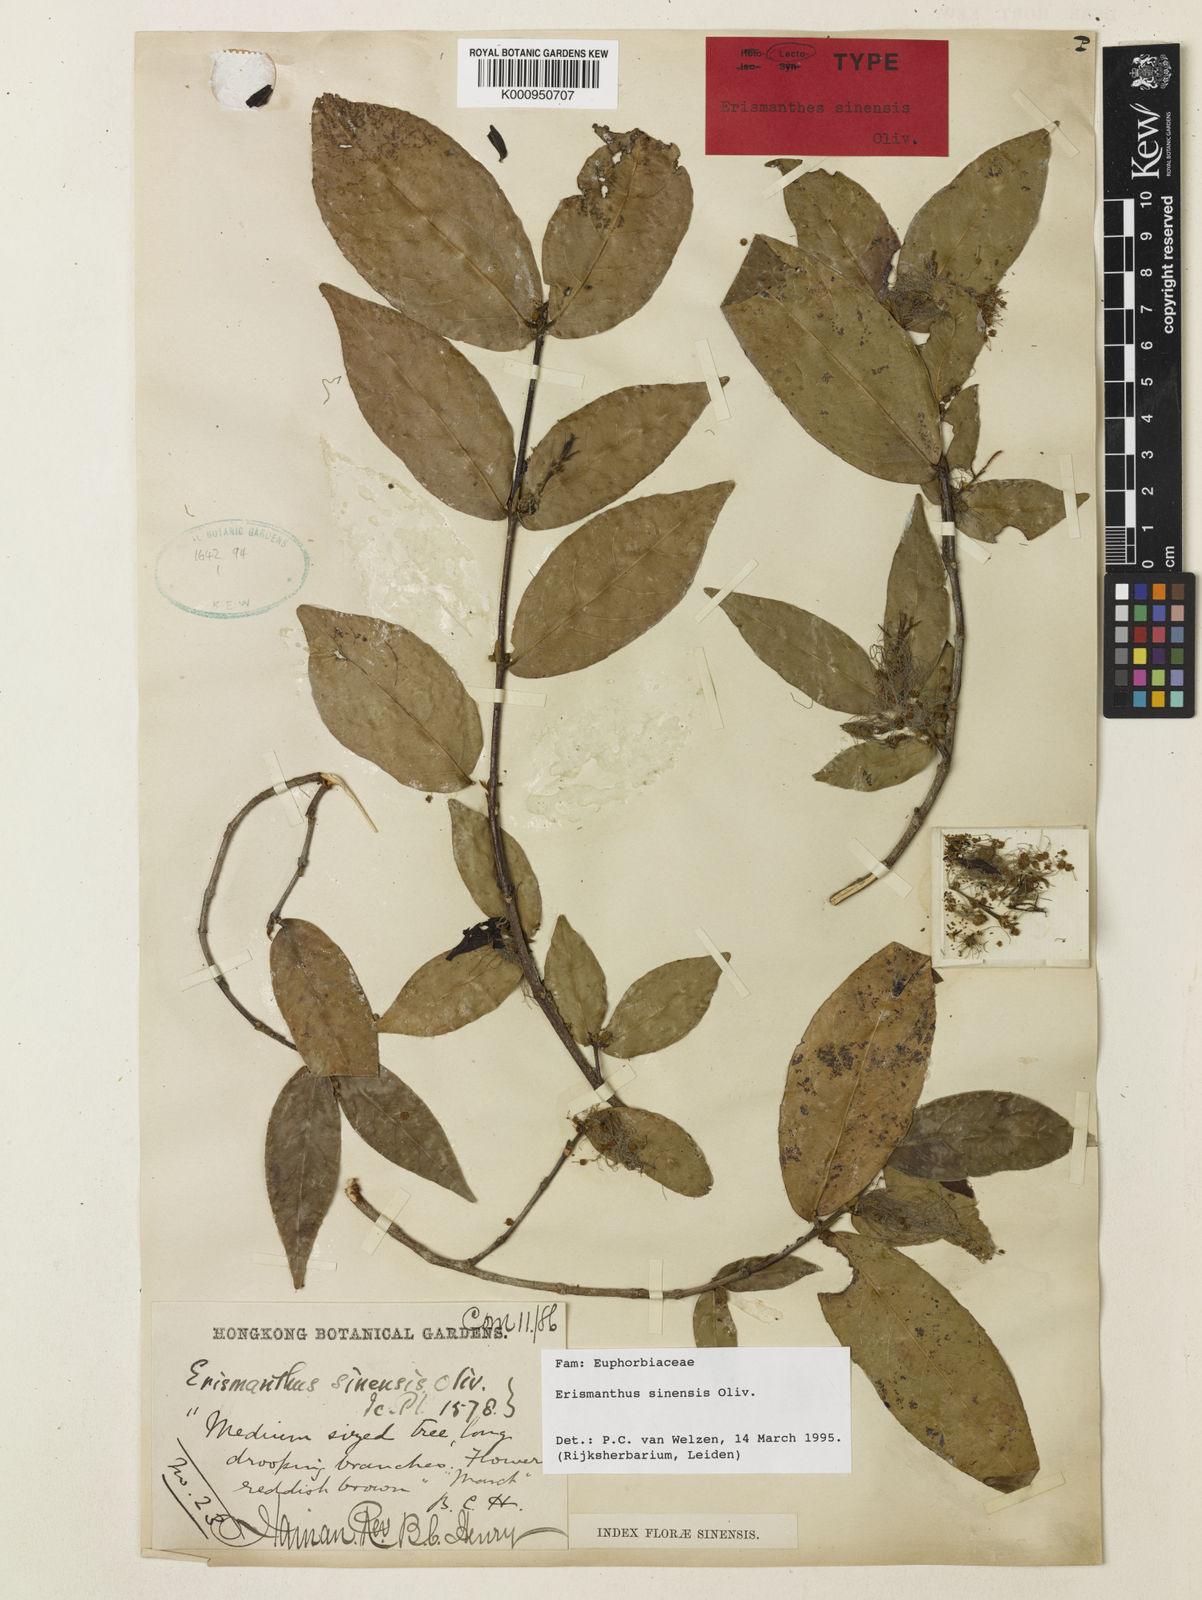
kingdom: Plantae
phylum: Tracheophyta
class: Magnoliopsida
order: Malpighiales
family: Euphorbiaceae
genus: Erismanthus
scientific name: Erismanthus sinensis
